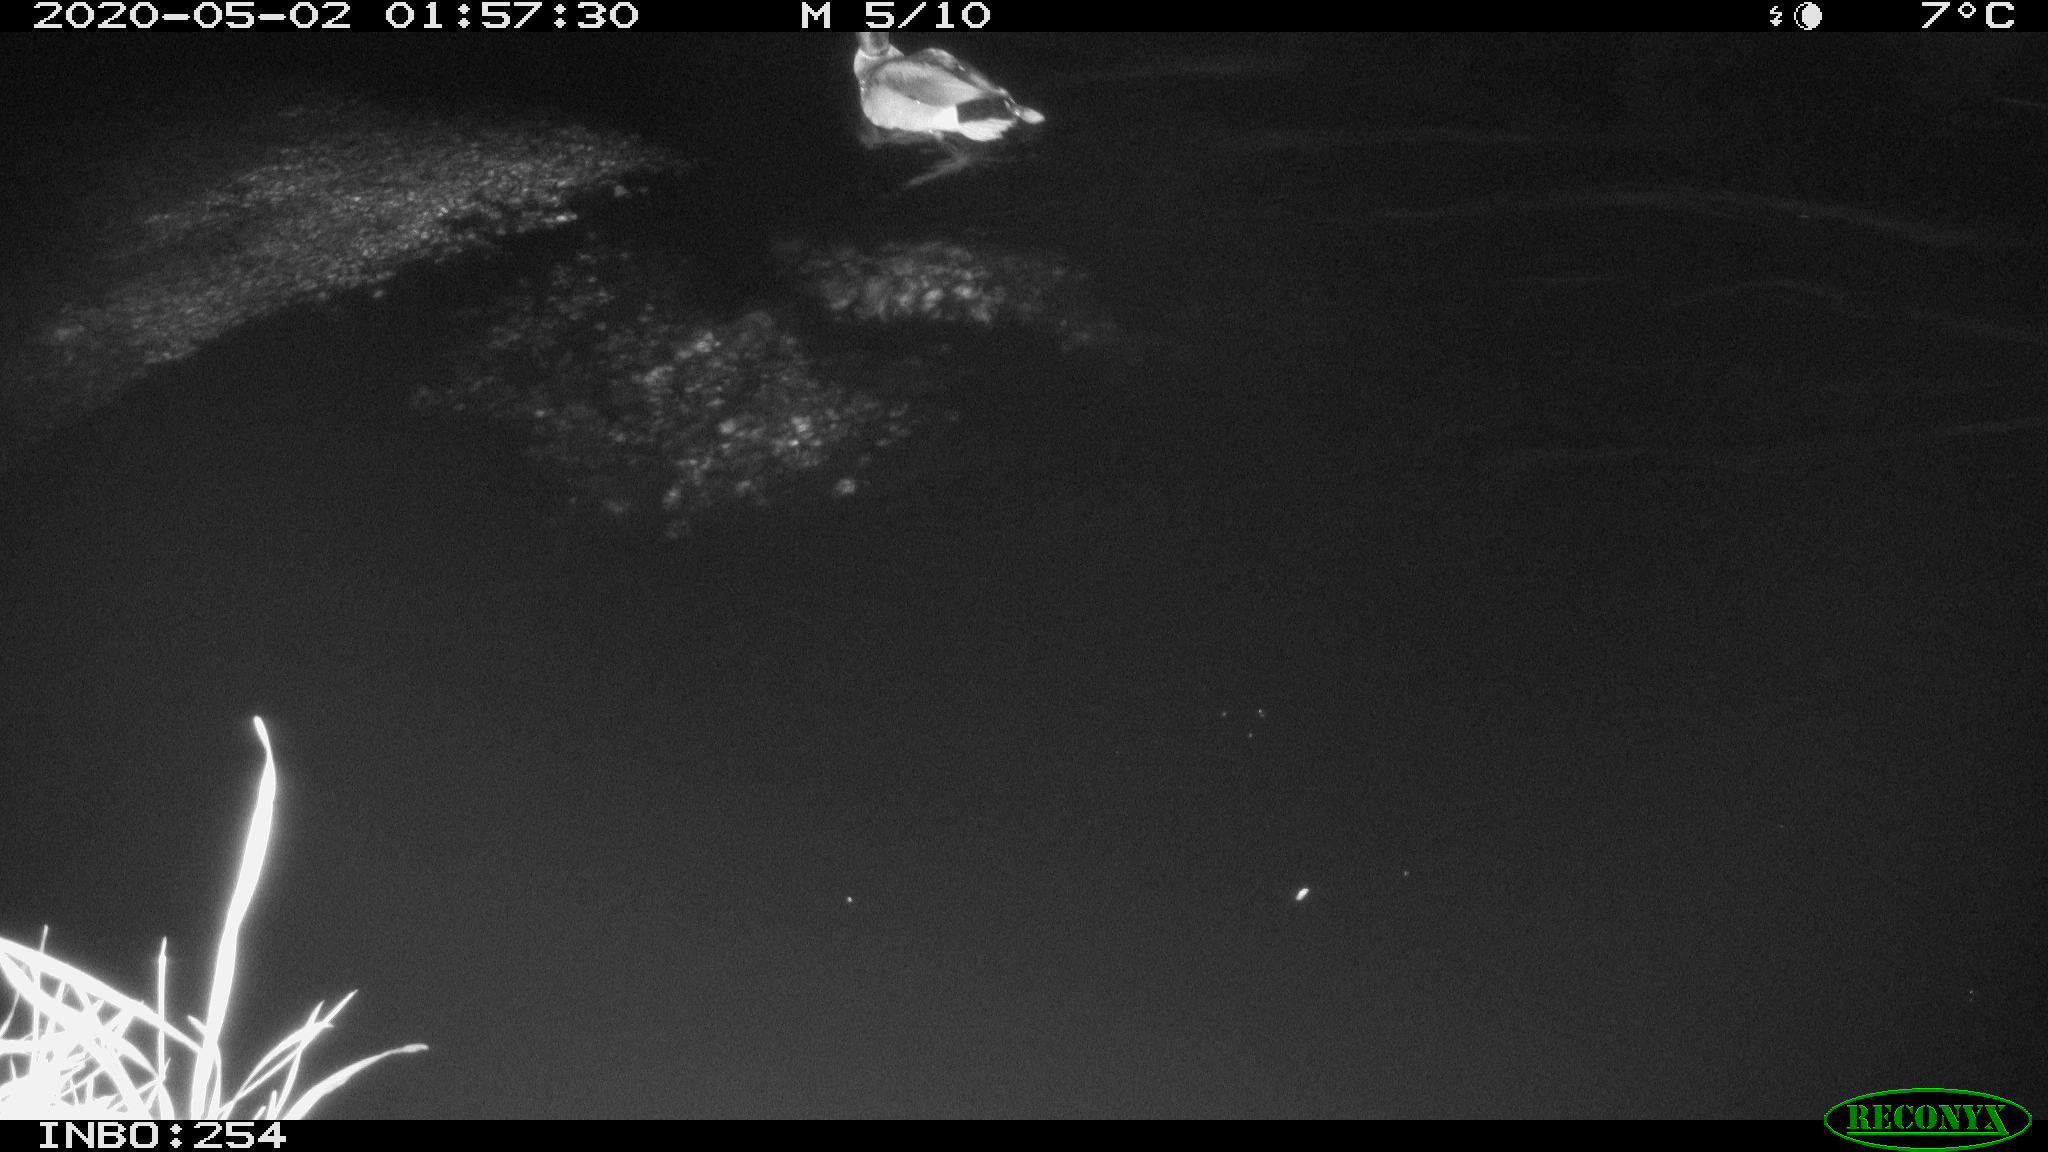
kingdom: Animalia
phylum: Chordata
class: Aves
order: Anseriformes
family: Anatidae
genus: Anas
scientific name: Anas platyrhynchos
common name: Mallard
